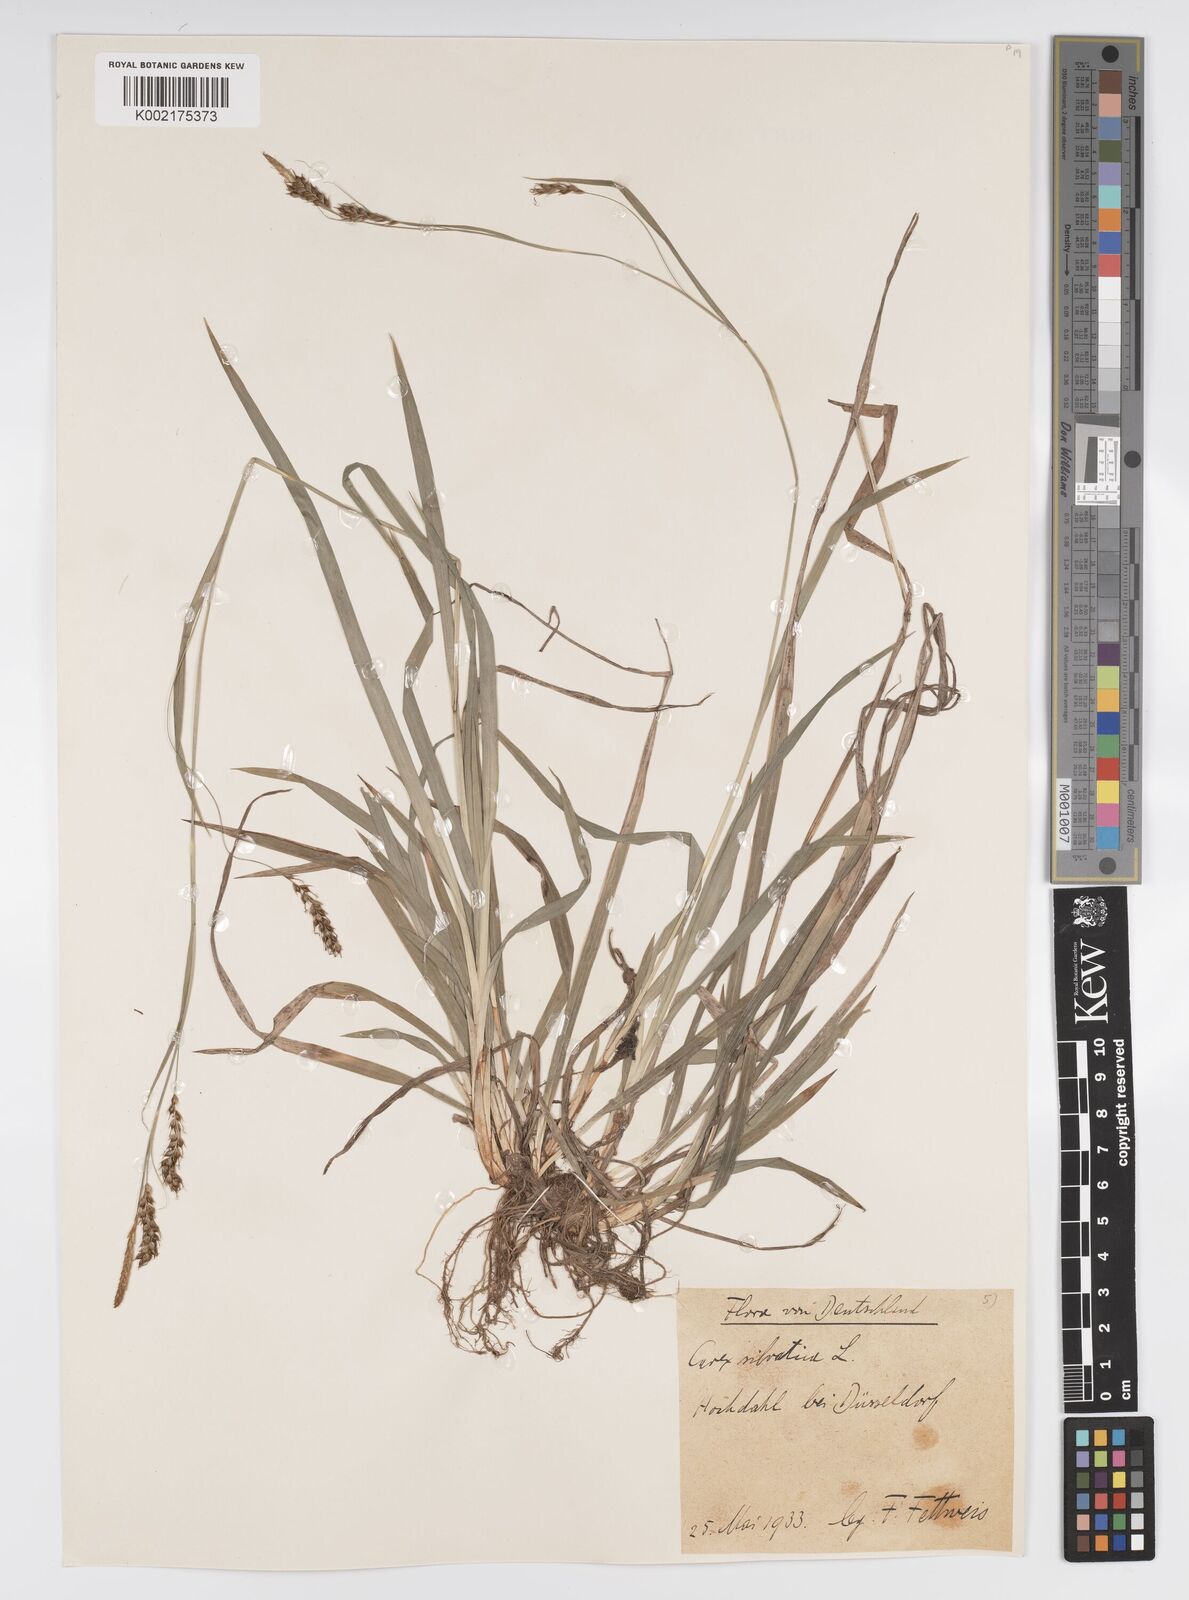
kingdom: Plantae
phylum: Tracheophyta
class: Liliopsida
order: Poales
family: Cyperaceae
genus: Carex
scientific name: Carex sylvatica
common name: Wood-sedge
